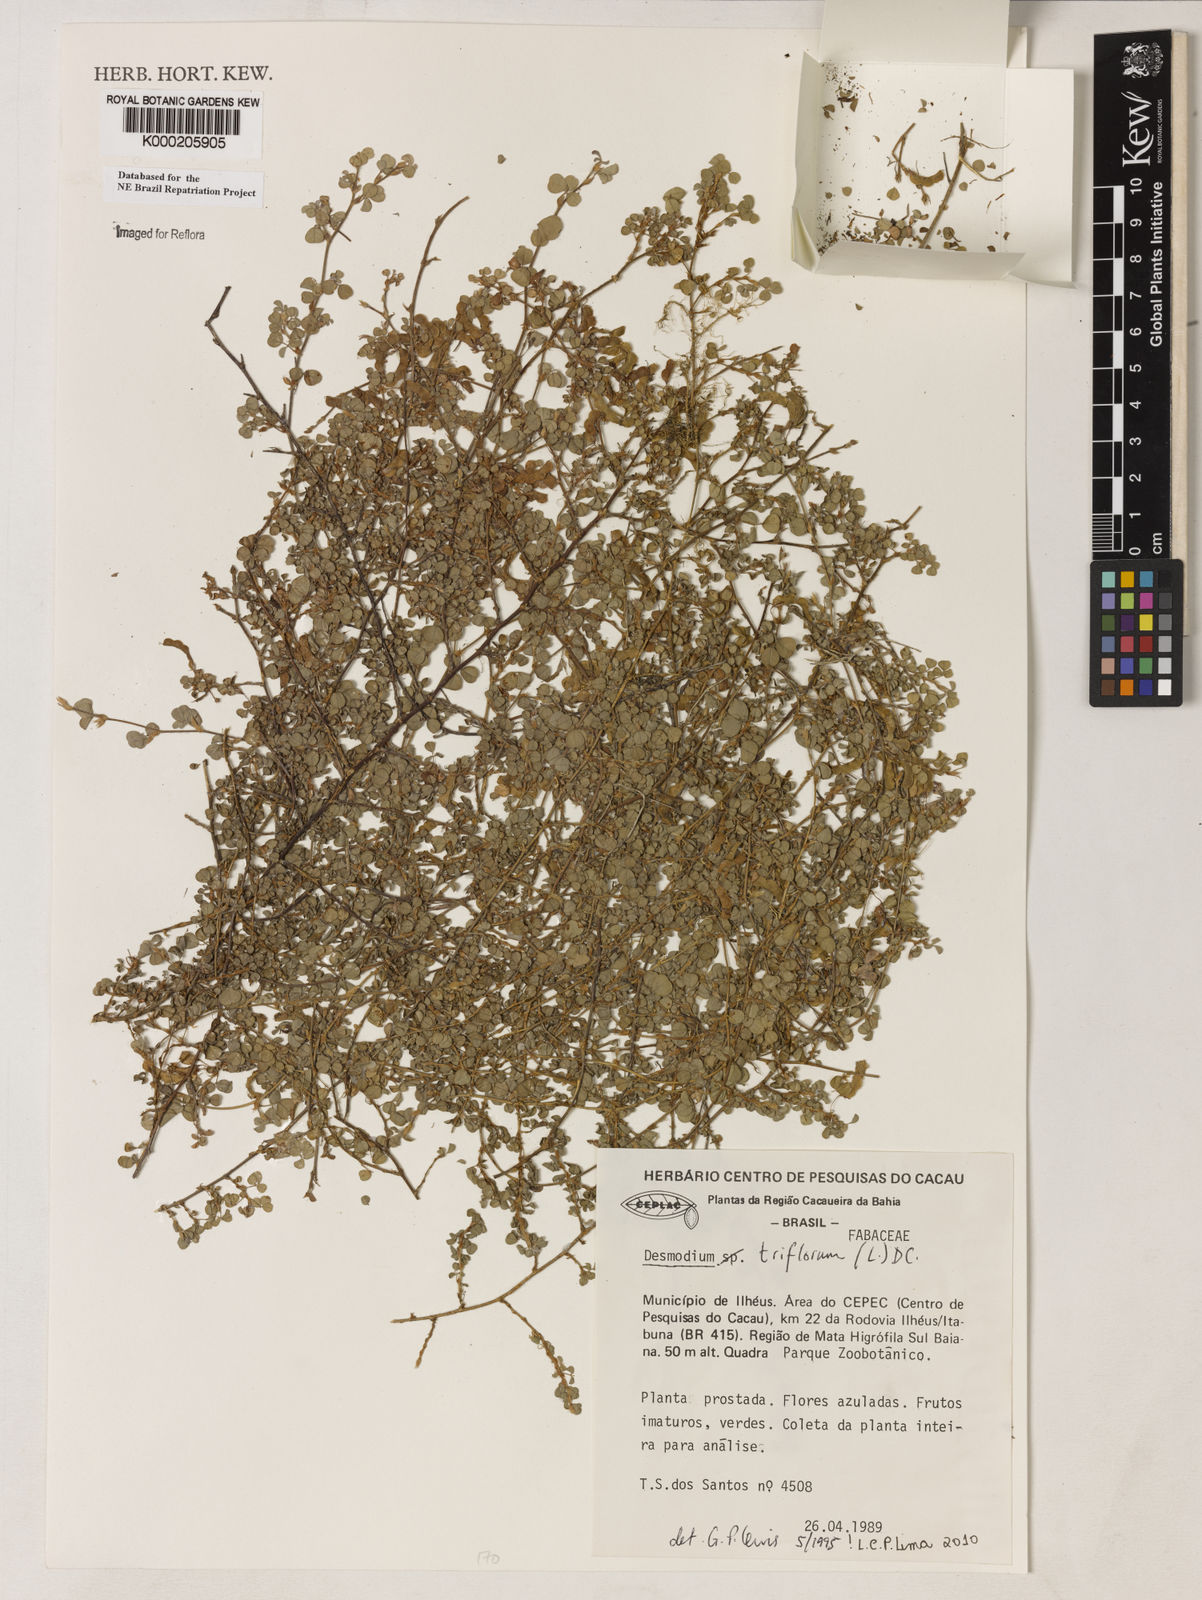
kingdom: Plantae
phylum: Tracheophyta
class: Magnoliopsida
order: Fabales
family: Fabaceae
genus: Grona
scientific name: Grona triflora
